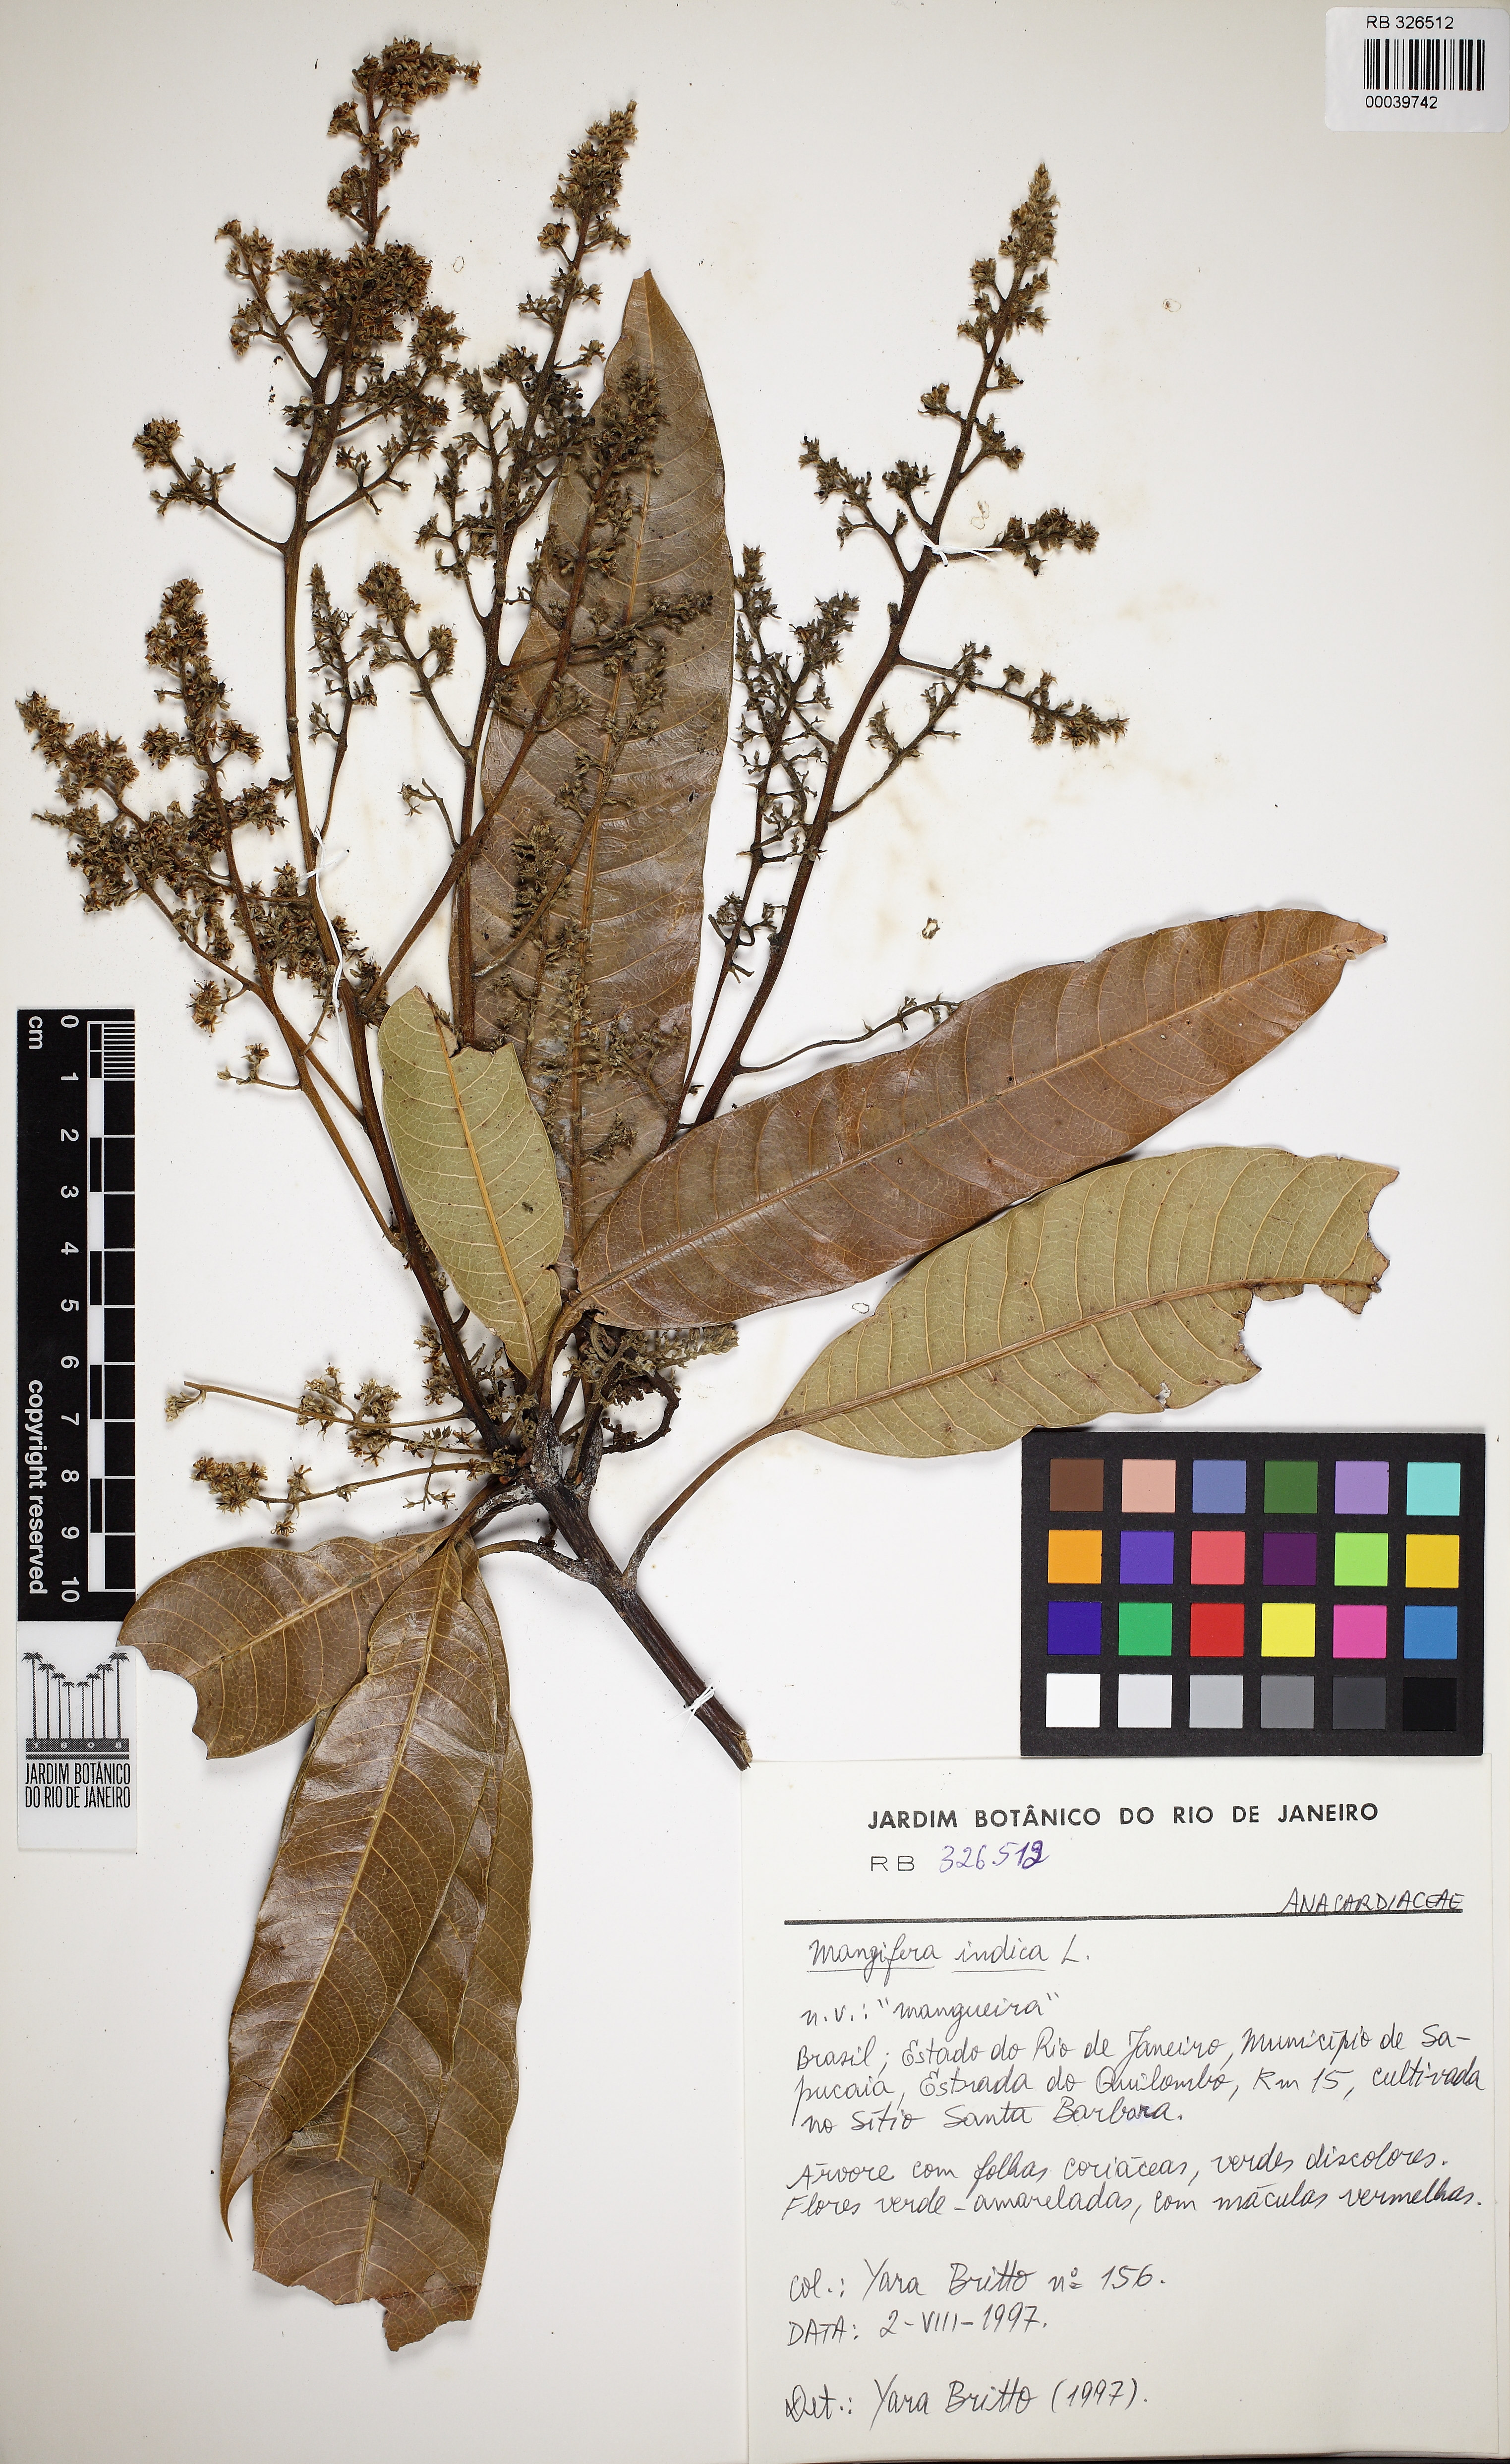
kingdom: Plantae
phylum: Tracheophyta
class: Magnoliopsida
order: Sapindales
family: Anacardiaceae
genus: Mangifera
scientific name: Mangifera indica
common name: Mango
